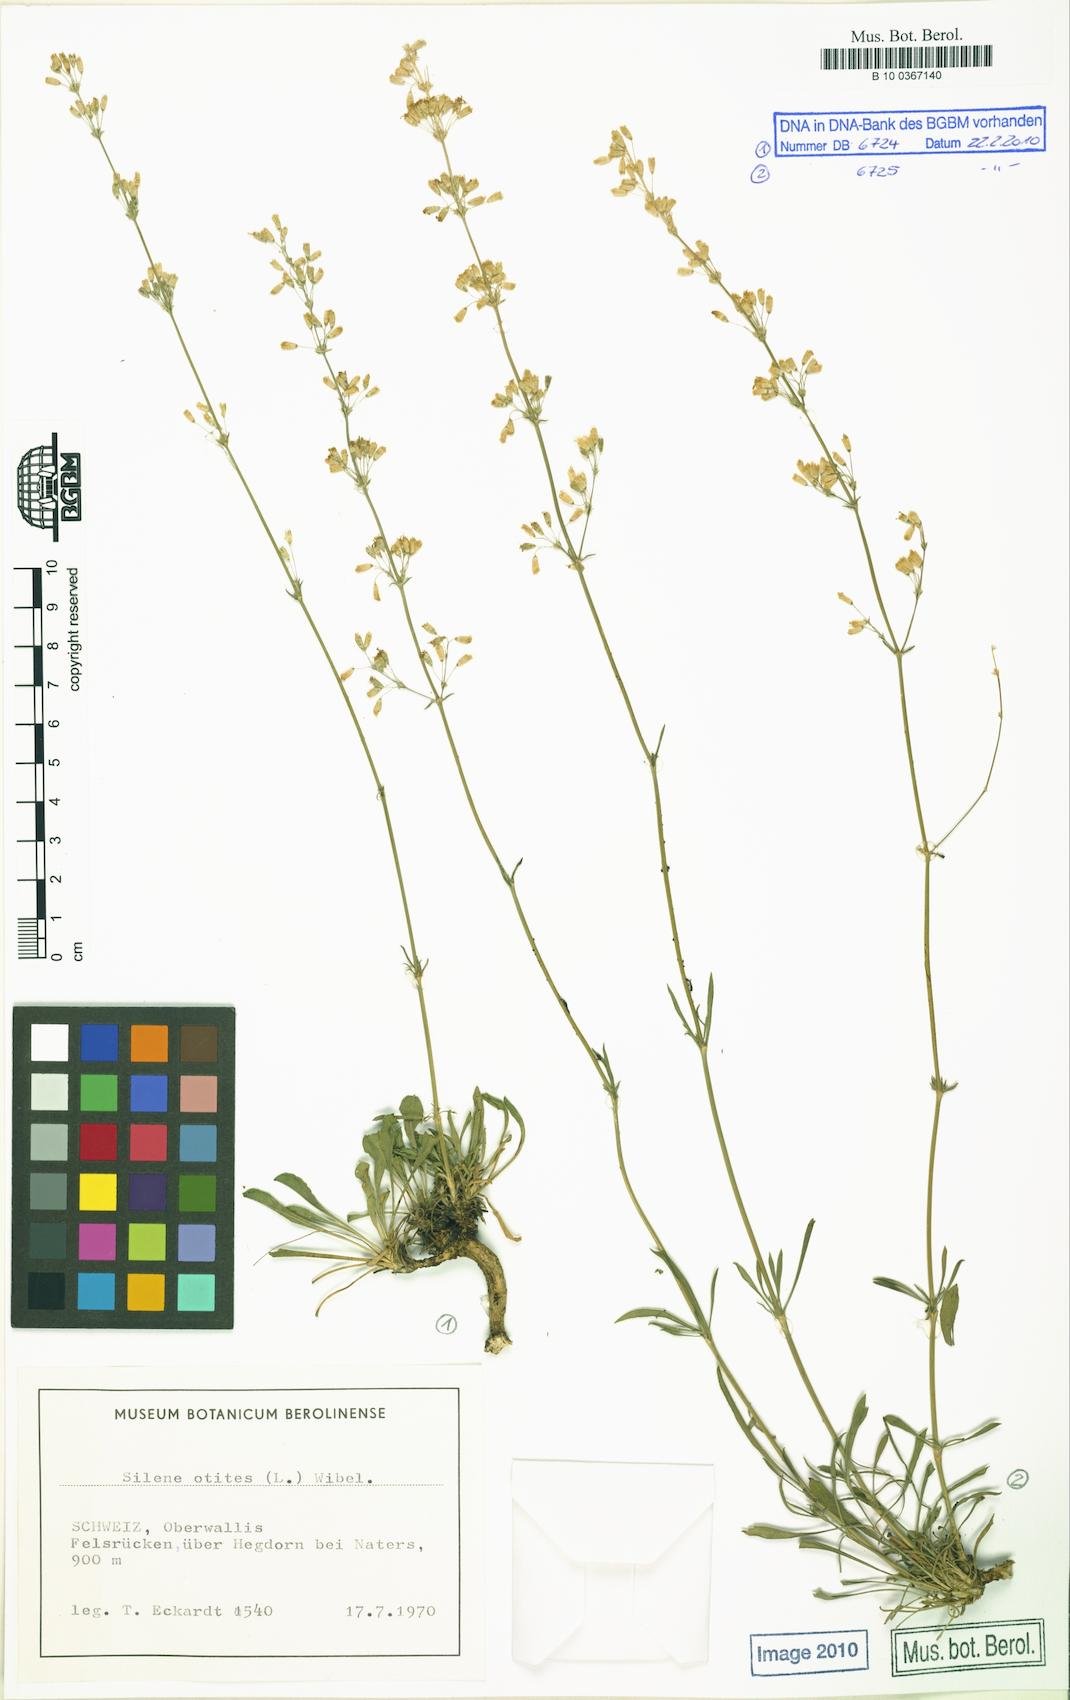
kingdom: Plantae
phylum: Tracheophyta
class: Magnoliopsida
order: Caryophyllales
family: Caryophyllaceae
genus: Silene
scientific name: Silene otites
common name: Spanish catchfly
